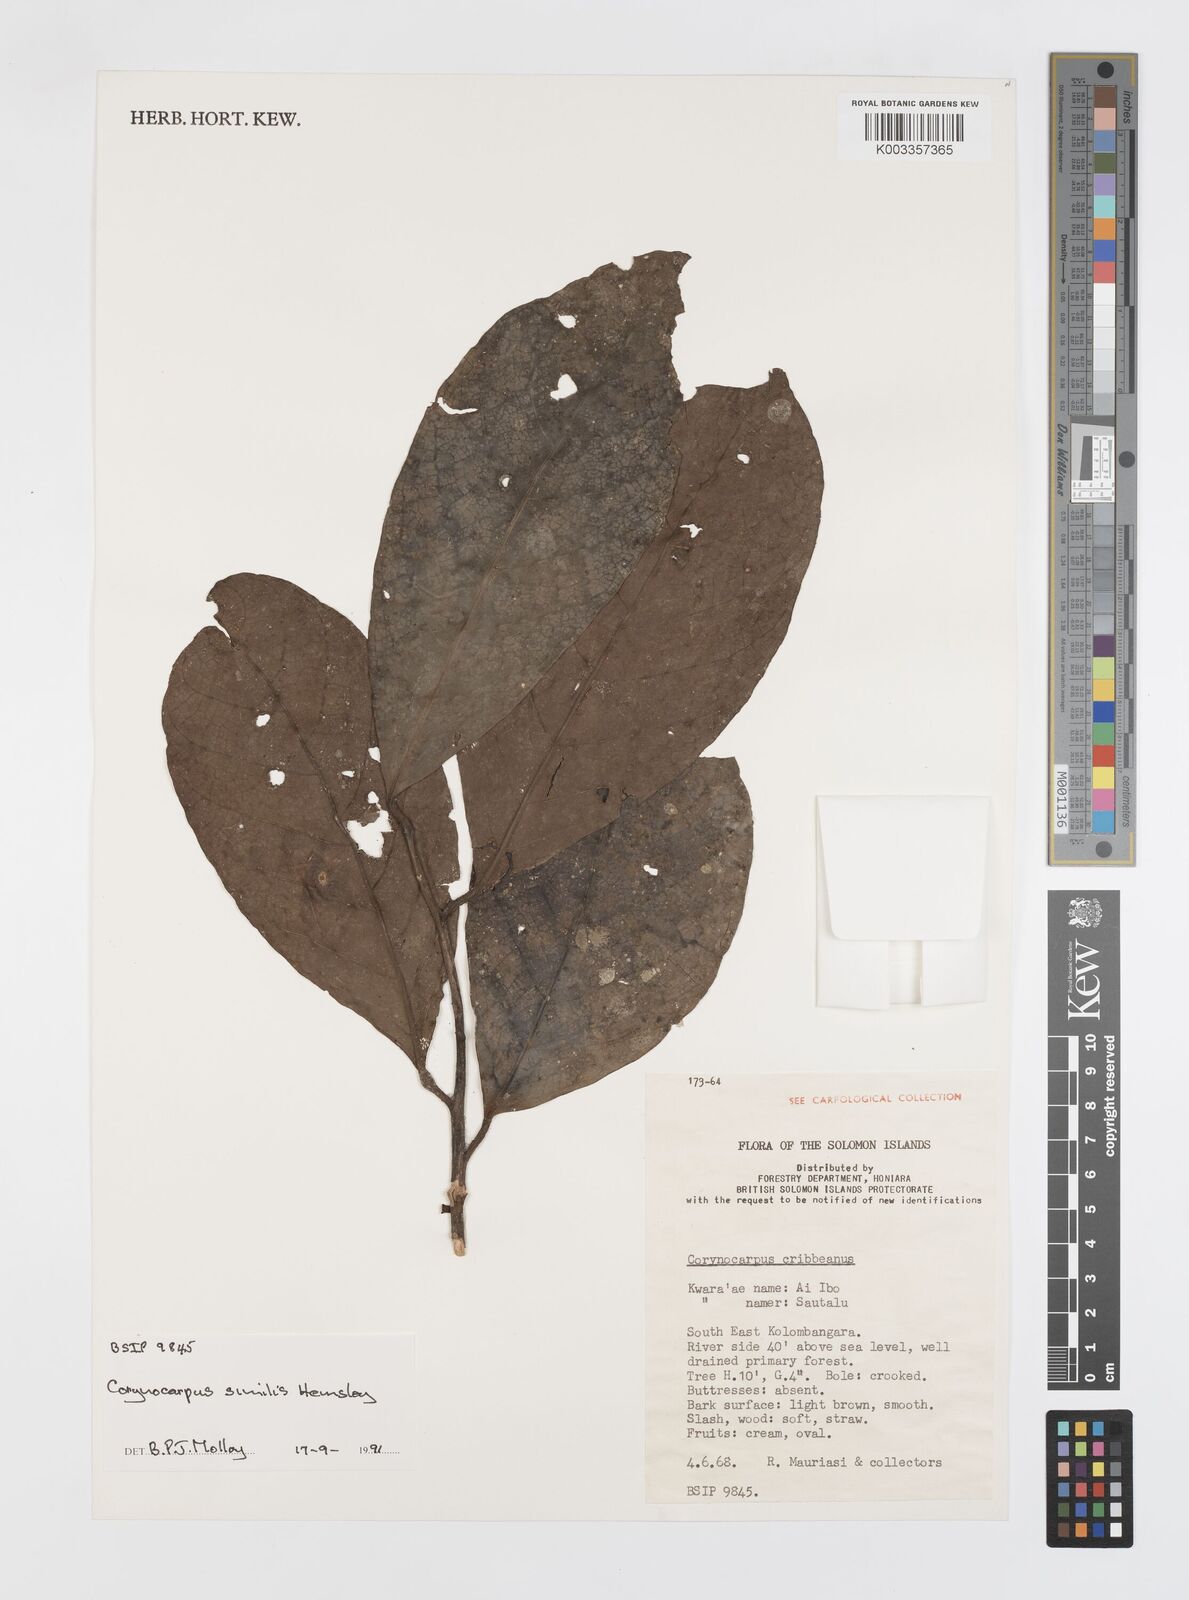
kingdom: Plantae
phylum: Tracheophyta
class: Magnoliopsida
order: Cucurbitales
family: Corynocarpaceae
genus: Corynocarpus
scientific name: Corynocarpus similis
